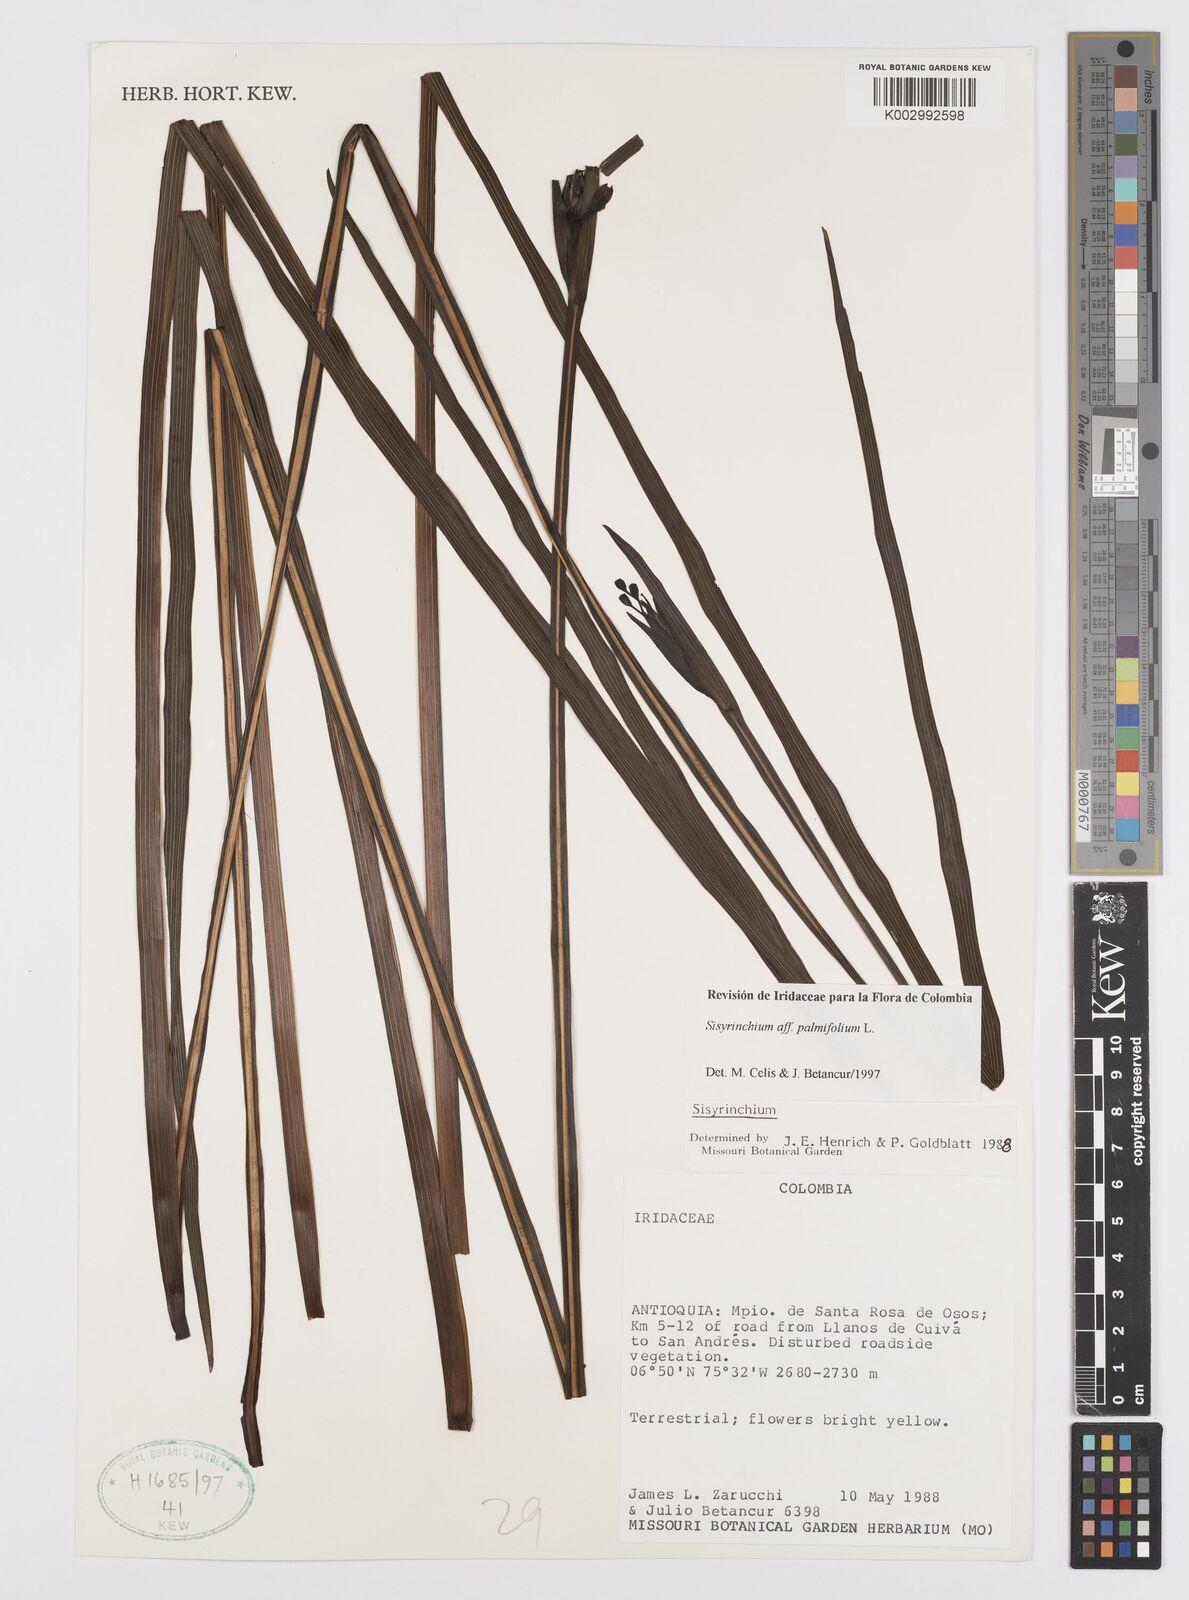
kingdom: Plantae
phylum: Tracheophyta
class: Liliopsida
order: Asparagales
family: Iridaceae
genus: Sisyrinchium
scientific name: Sisyrinchium palmifolium
